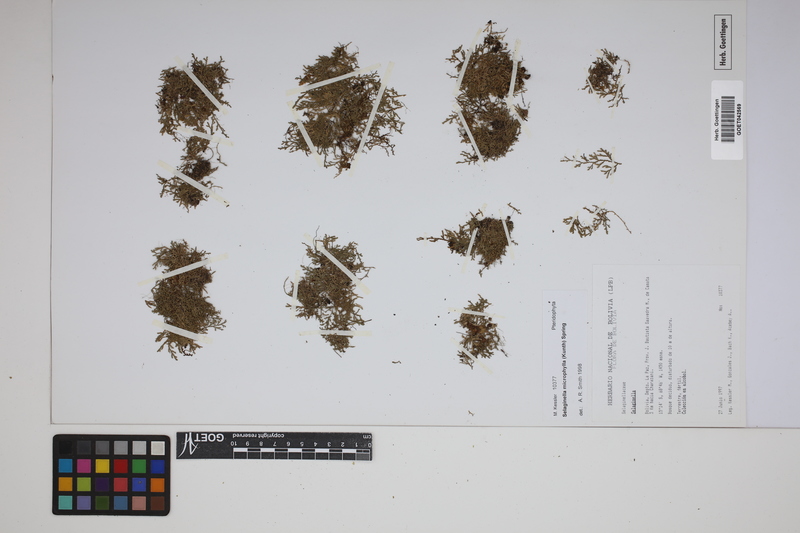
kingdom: Plantae
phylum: Tracheophyta
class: Lycopodiopsida
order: Selaginellales
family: Selaginellaceae
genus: Selaginella
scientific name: Selaginella microphylla
